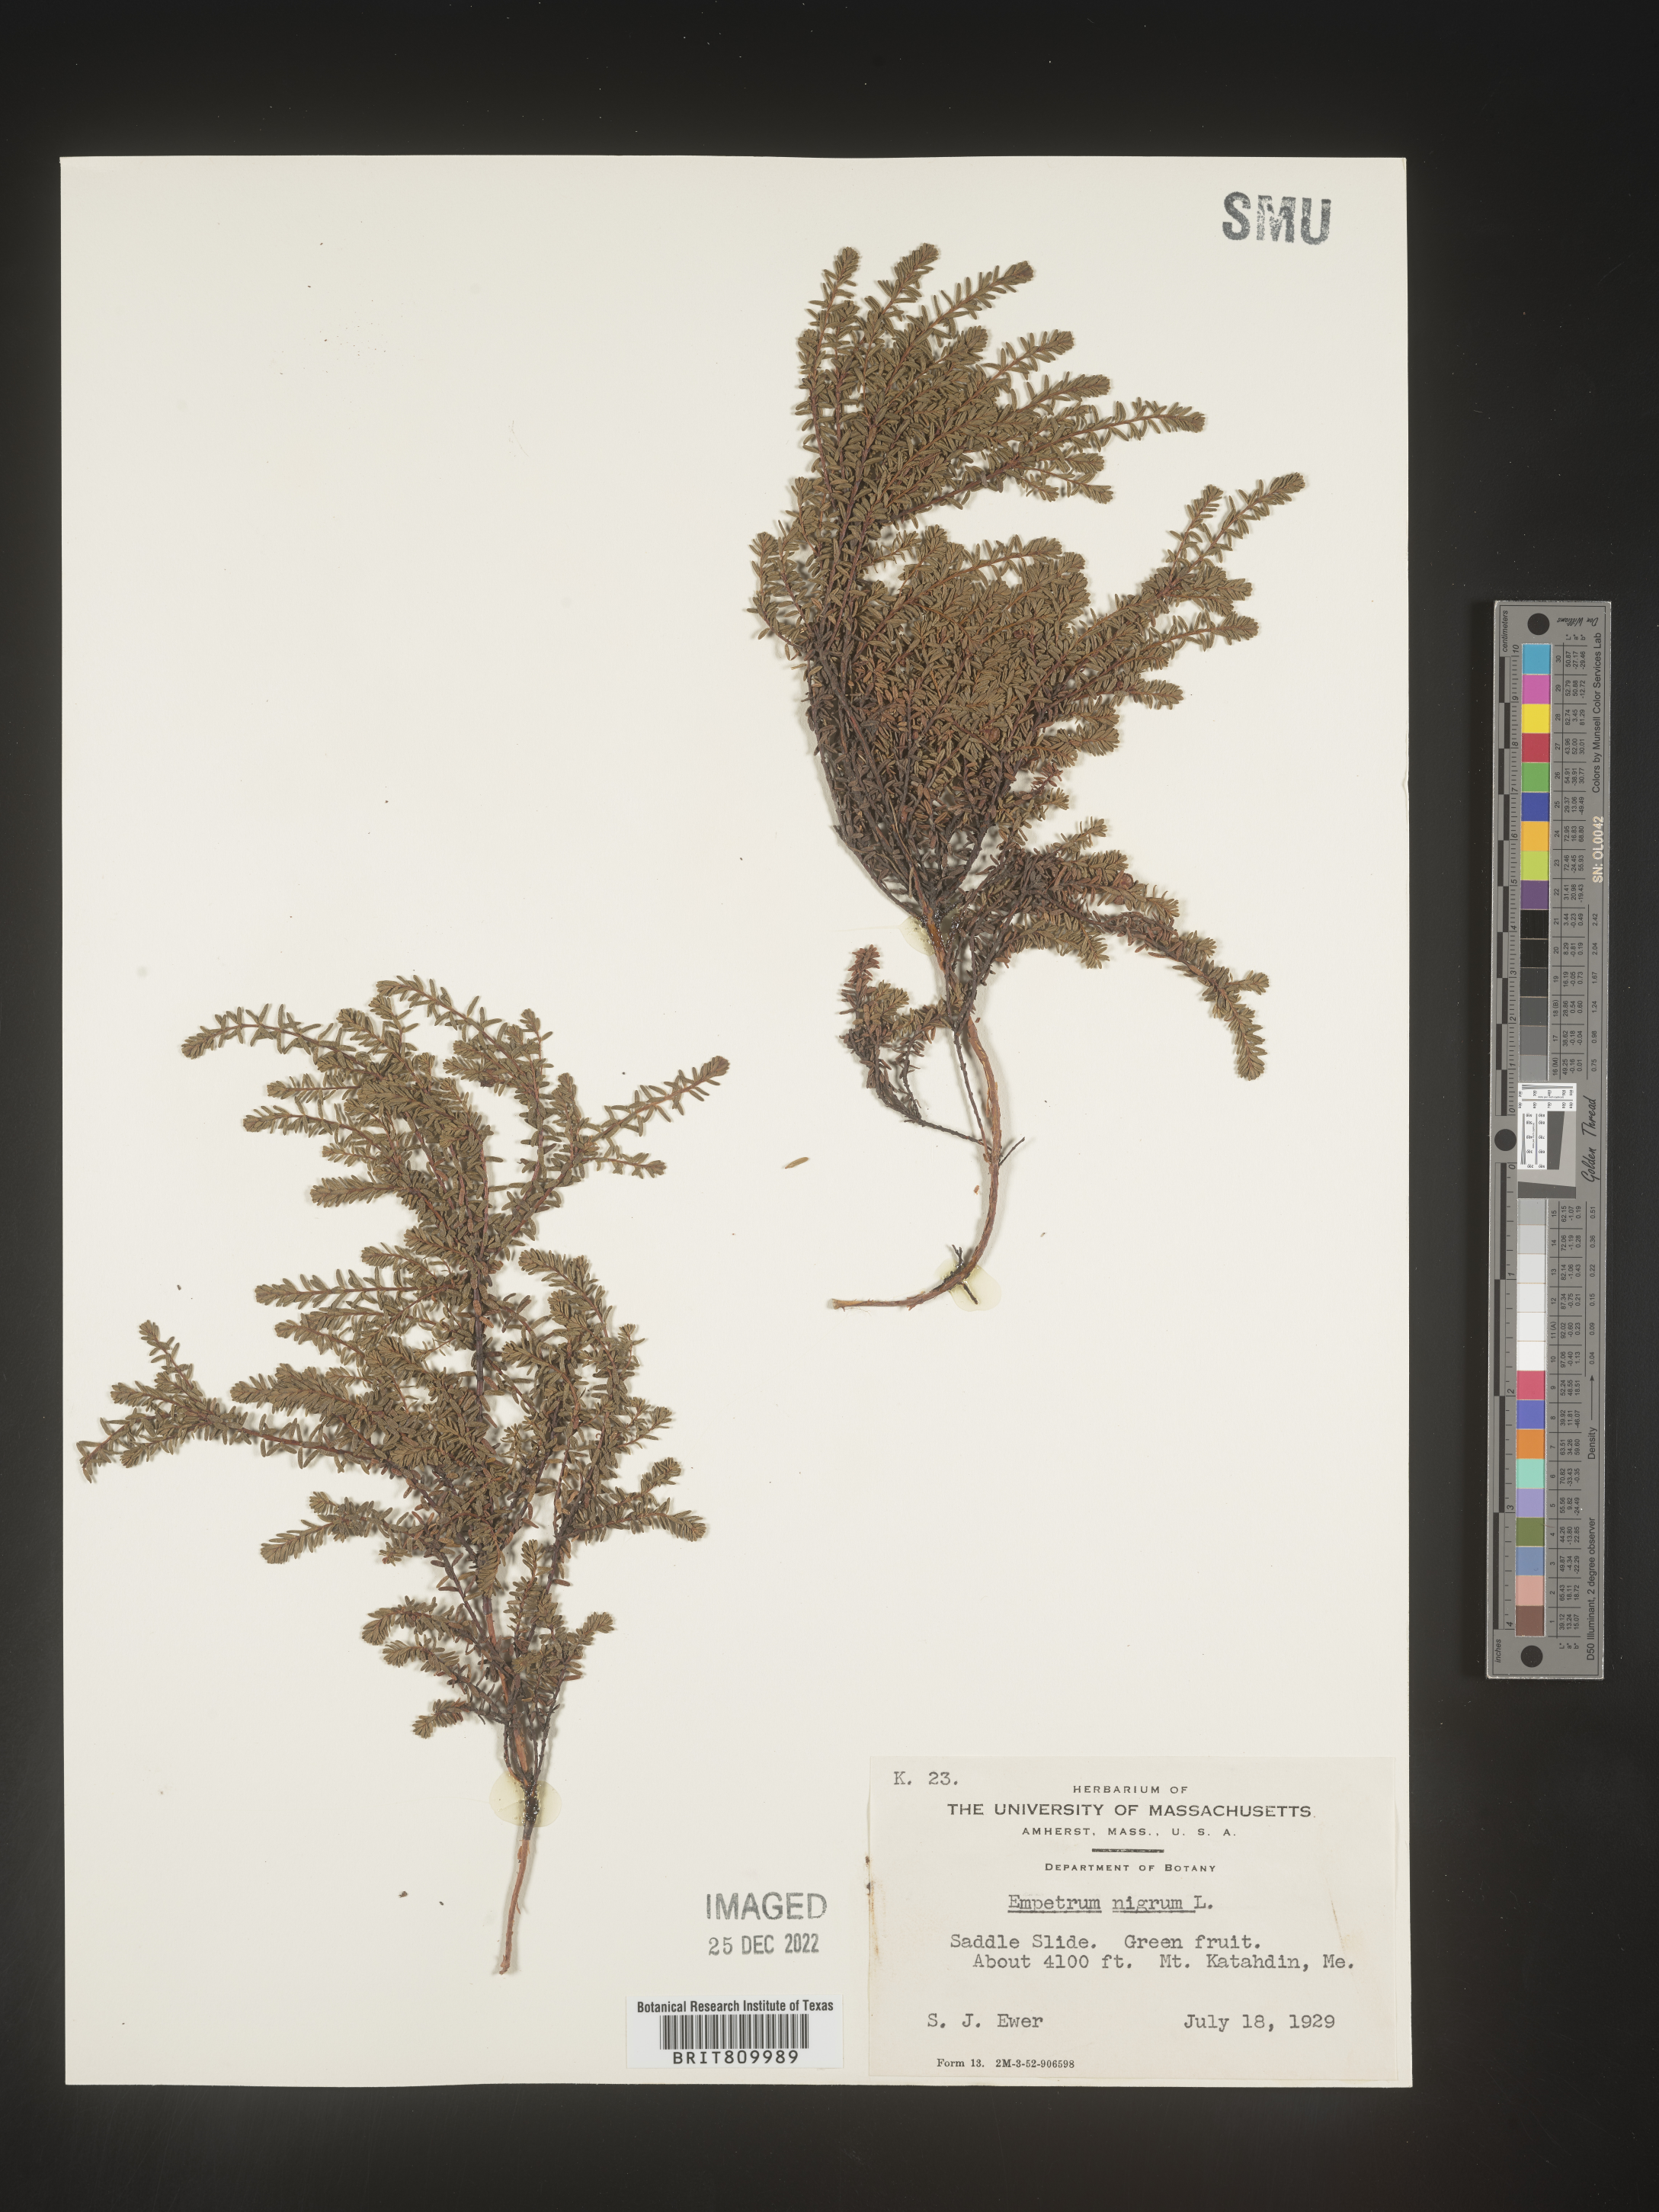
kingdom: Plantae
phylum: Tracheophyta
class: Magnoliopsida
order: Ericales
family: Ericaceae
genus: Empetrum
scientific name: Empetrum
